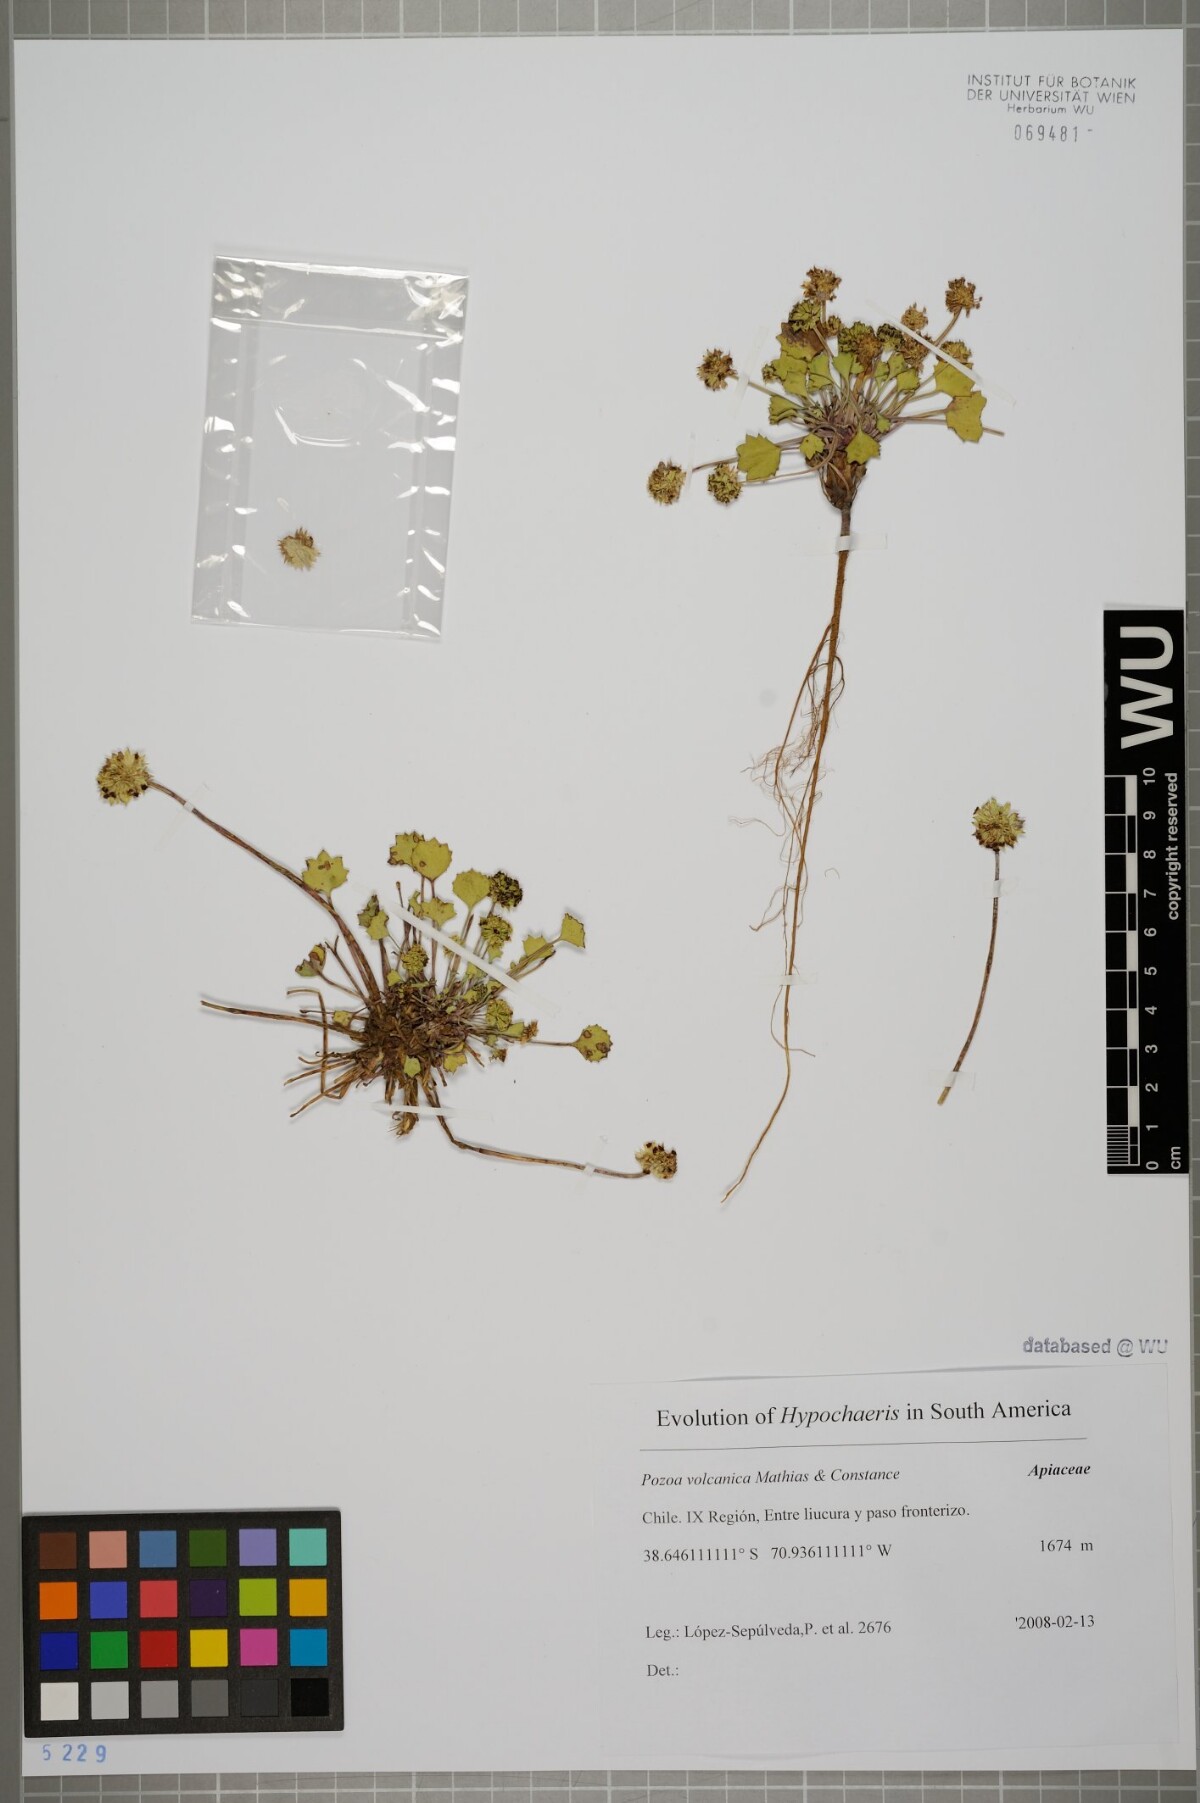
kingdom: Plantae
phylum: Tracheophyta
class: Magnoliopsida
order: Apiales
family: Apiaceae
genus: Pozoa
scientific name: Pozoa volcanica
